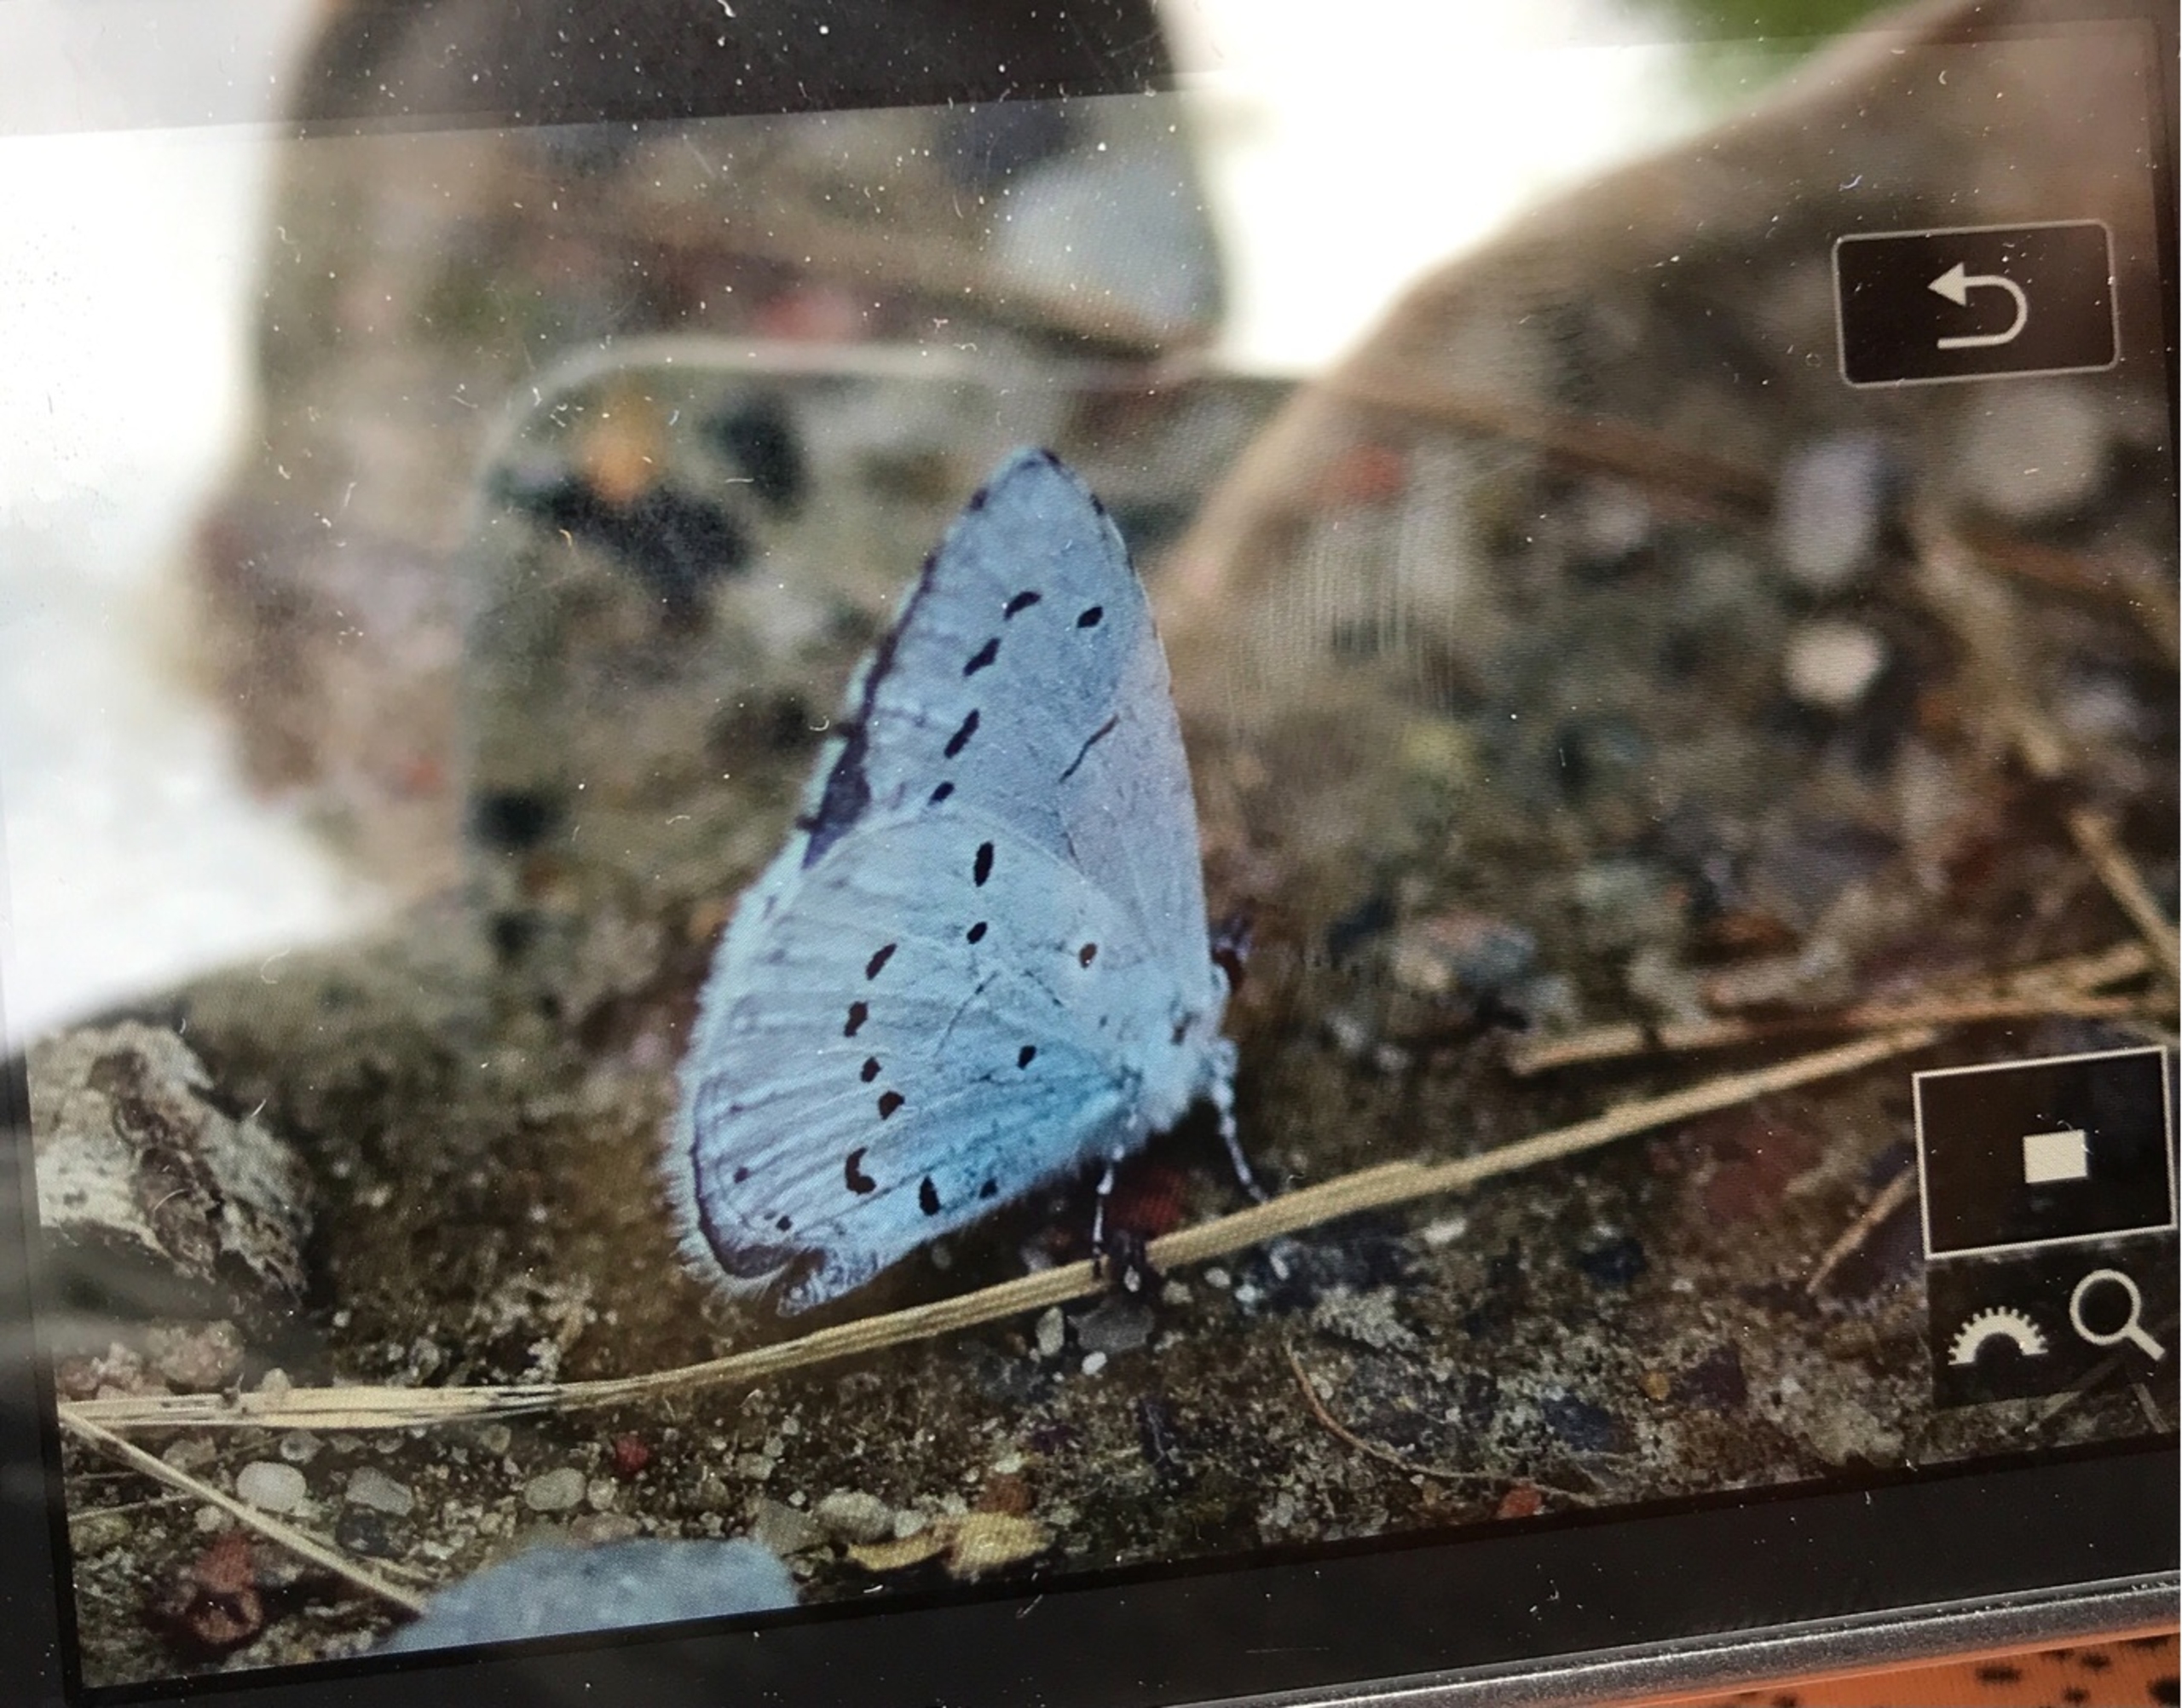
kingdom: Animalia
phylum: Arthropoda
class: Insecta
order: Lepidoptera
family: Lycaenidae
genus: Celastrina
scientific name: Celastrina argiolus
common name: Skovblåfugl
